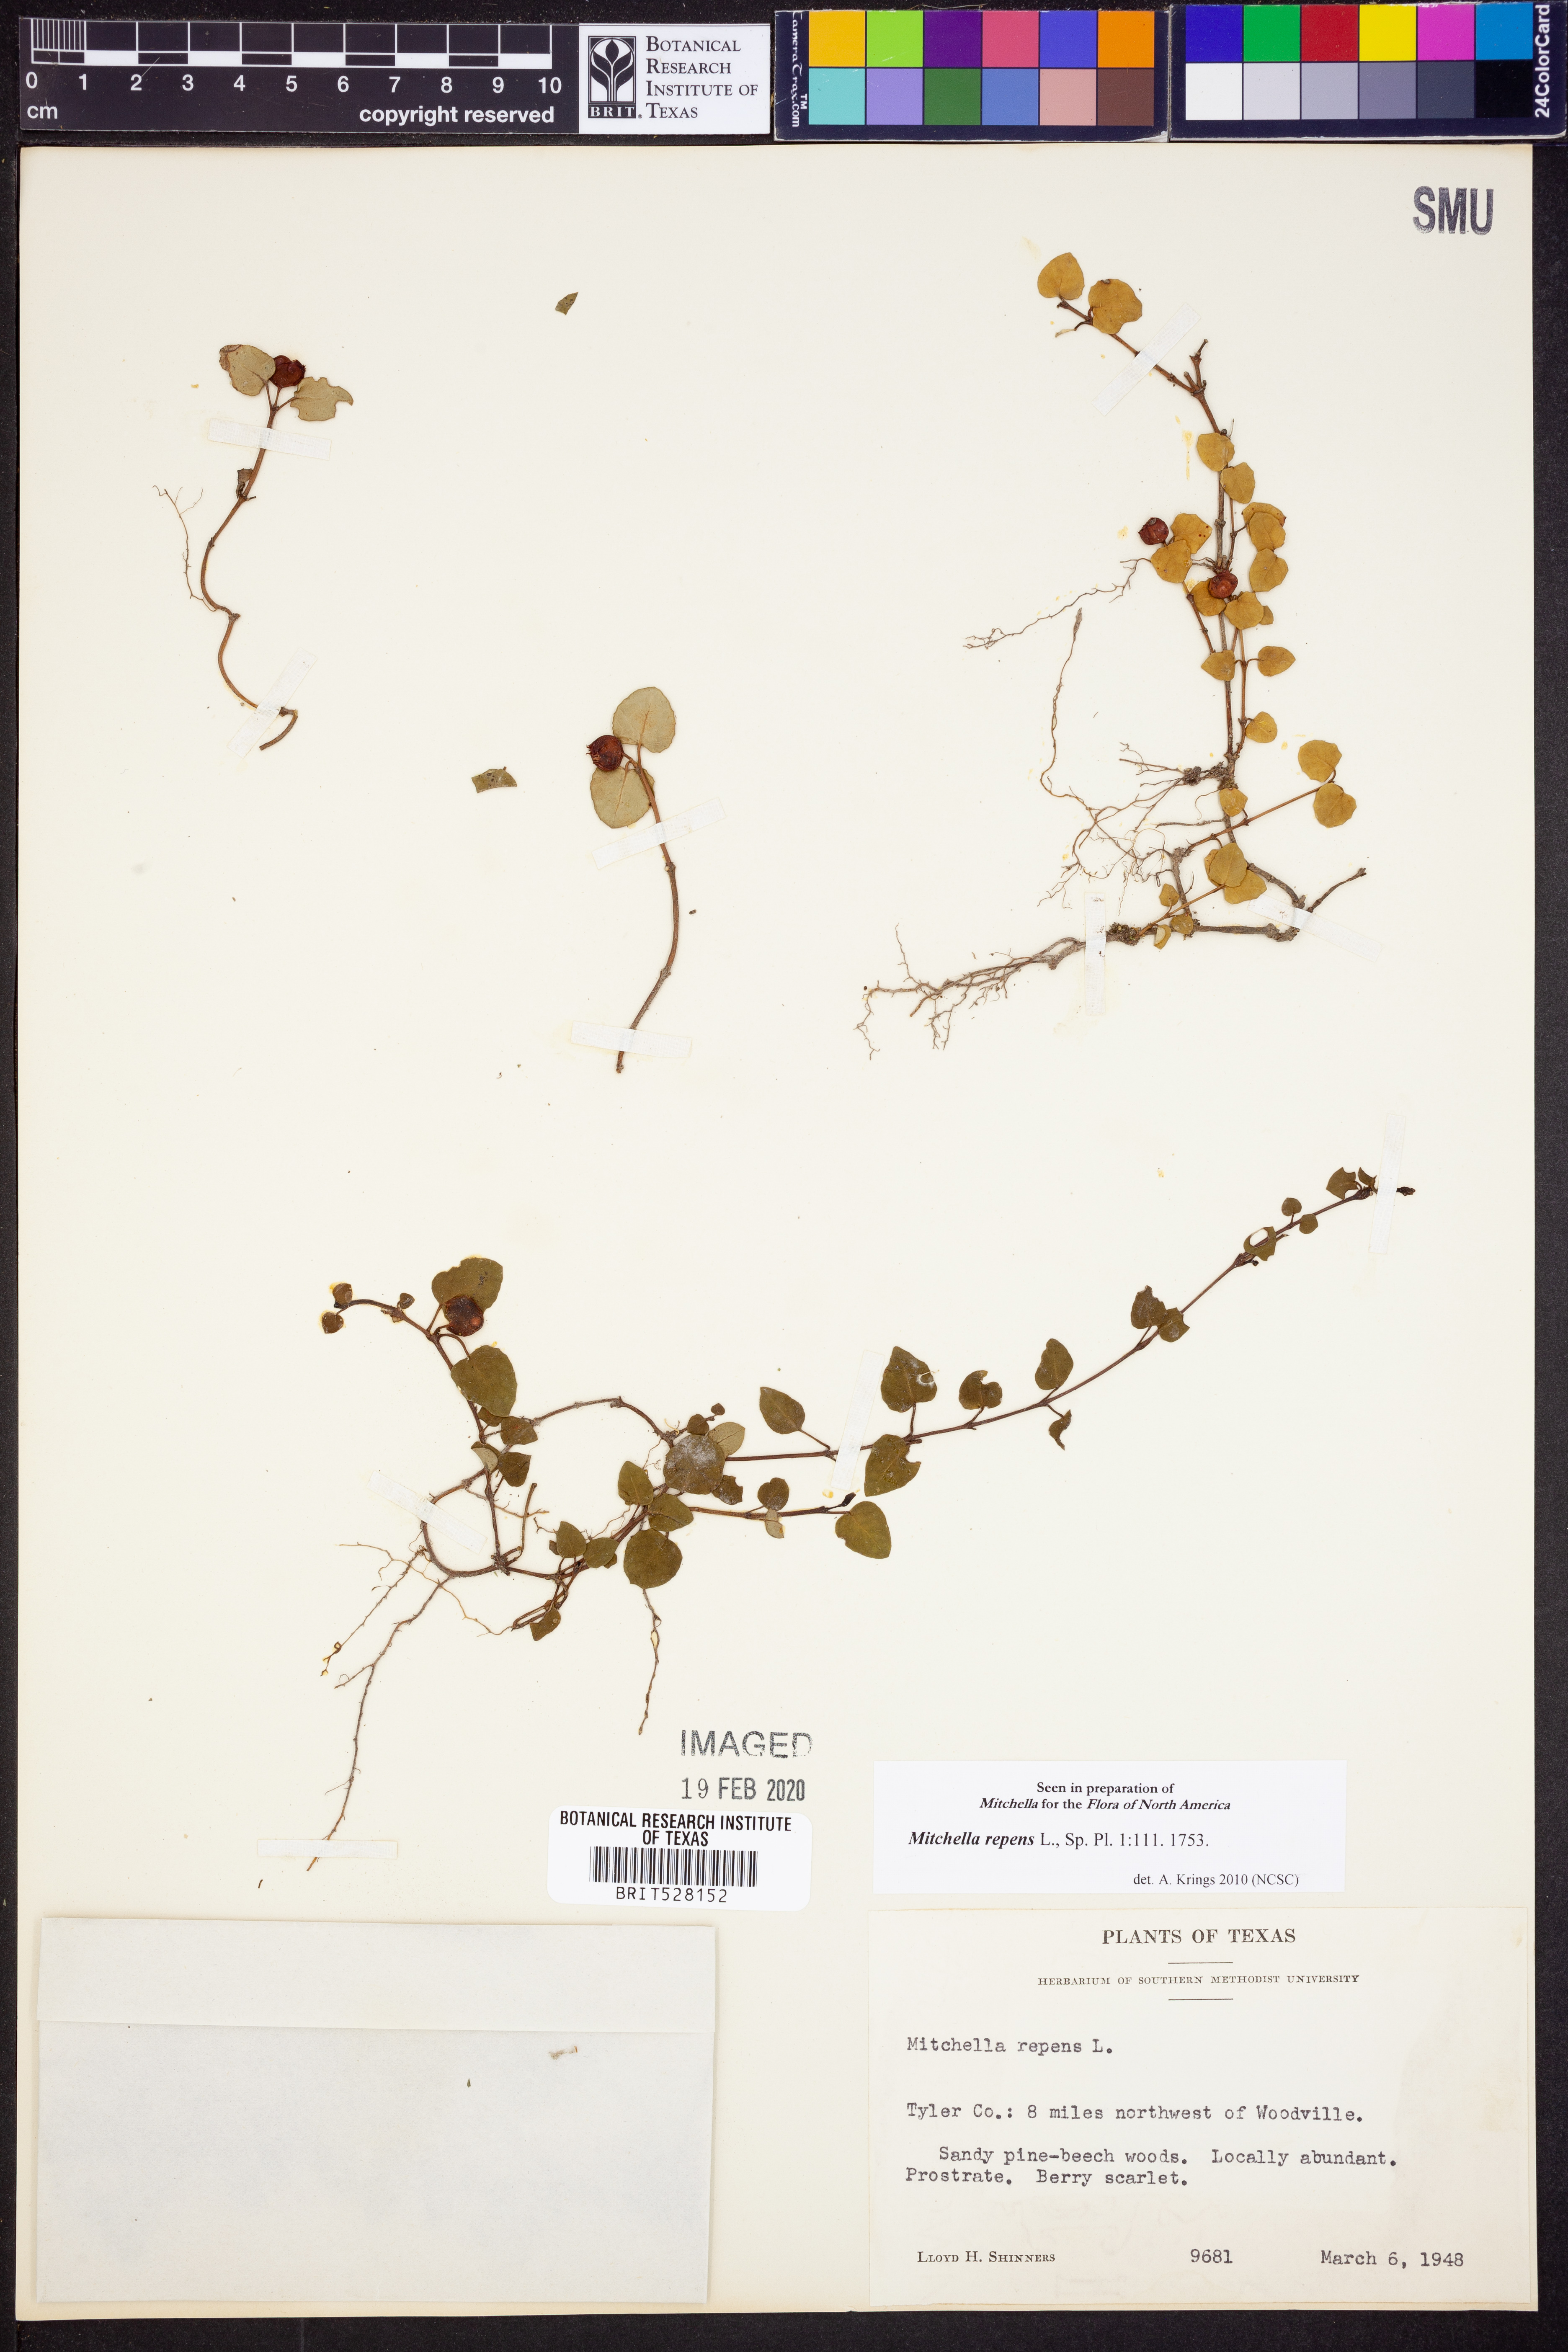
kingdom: Plantae
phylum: Tracheophyta
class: Magnoliopsida
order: Gentianales
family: Rubiaceae
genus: Mitchella
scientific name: Mitchella repens
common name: Partridge-berry
